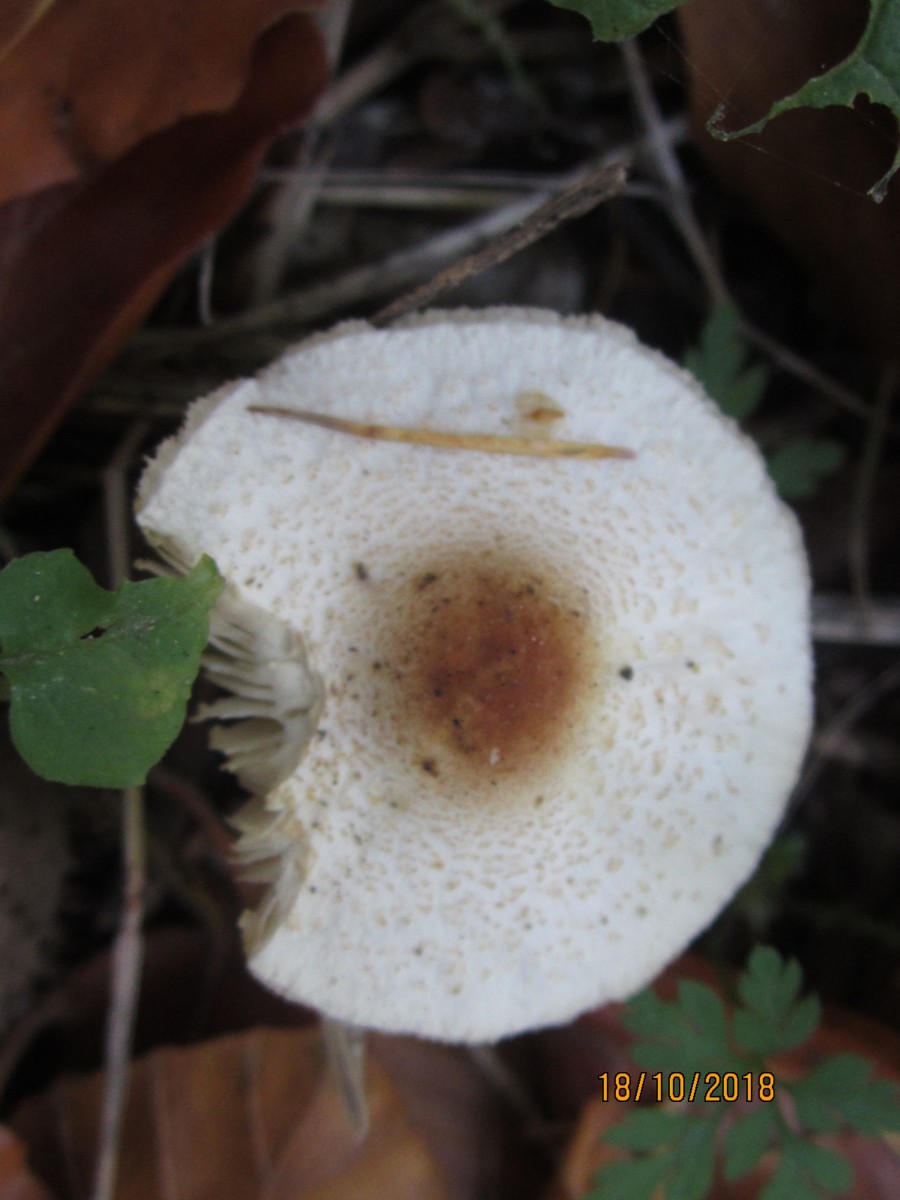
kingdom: Fungi
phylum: Basidiomycota
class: Agaricomycetes
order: Agaricales
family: Agaricaceae
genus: Lepiota
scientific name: Lepiota cristata
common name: stinkende parasolhat
